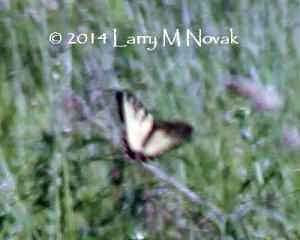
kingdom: Animalia
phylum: Arthropoda
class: Insecta
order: Lepidoptera
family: Papilionidae
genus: Papilio
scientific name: Papilio
